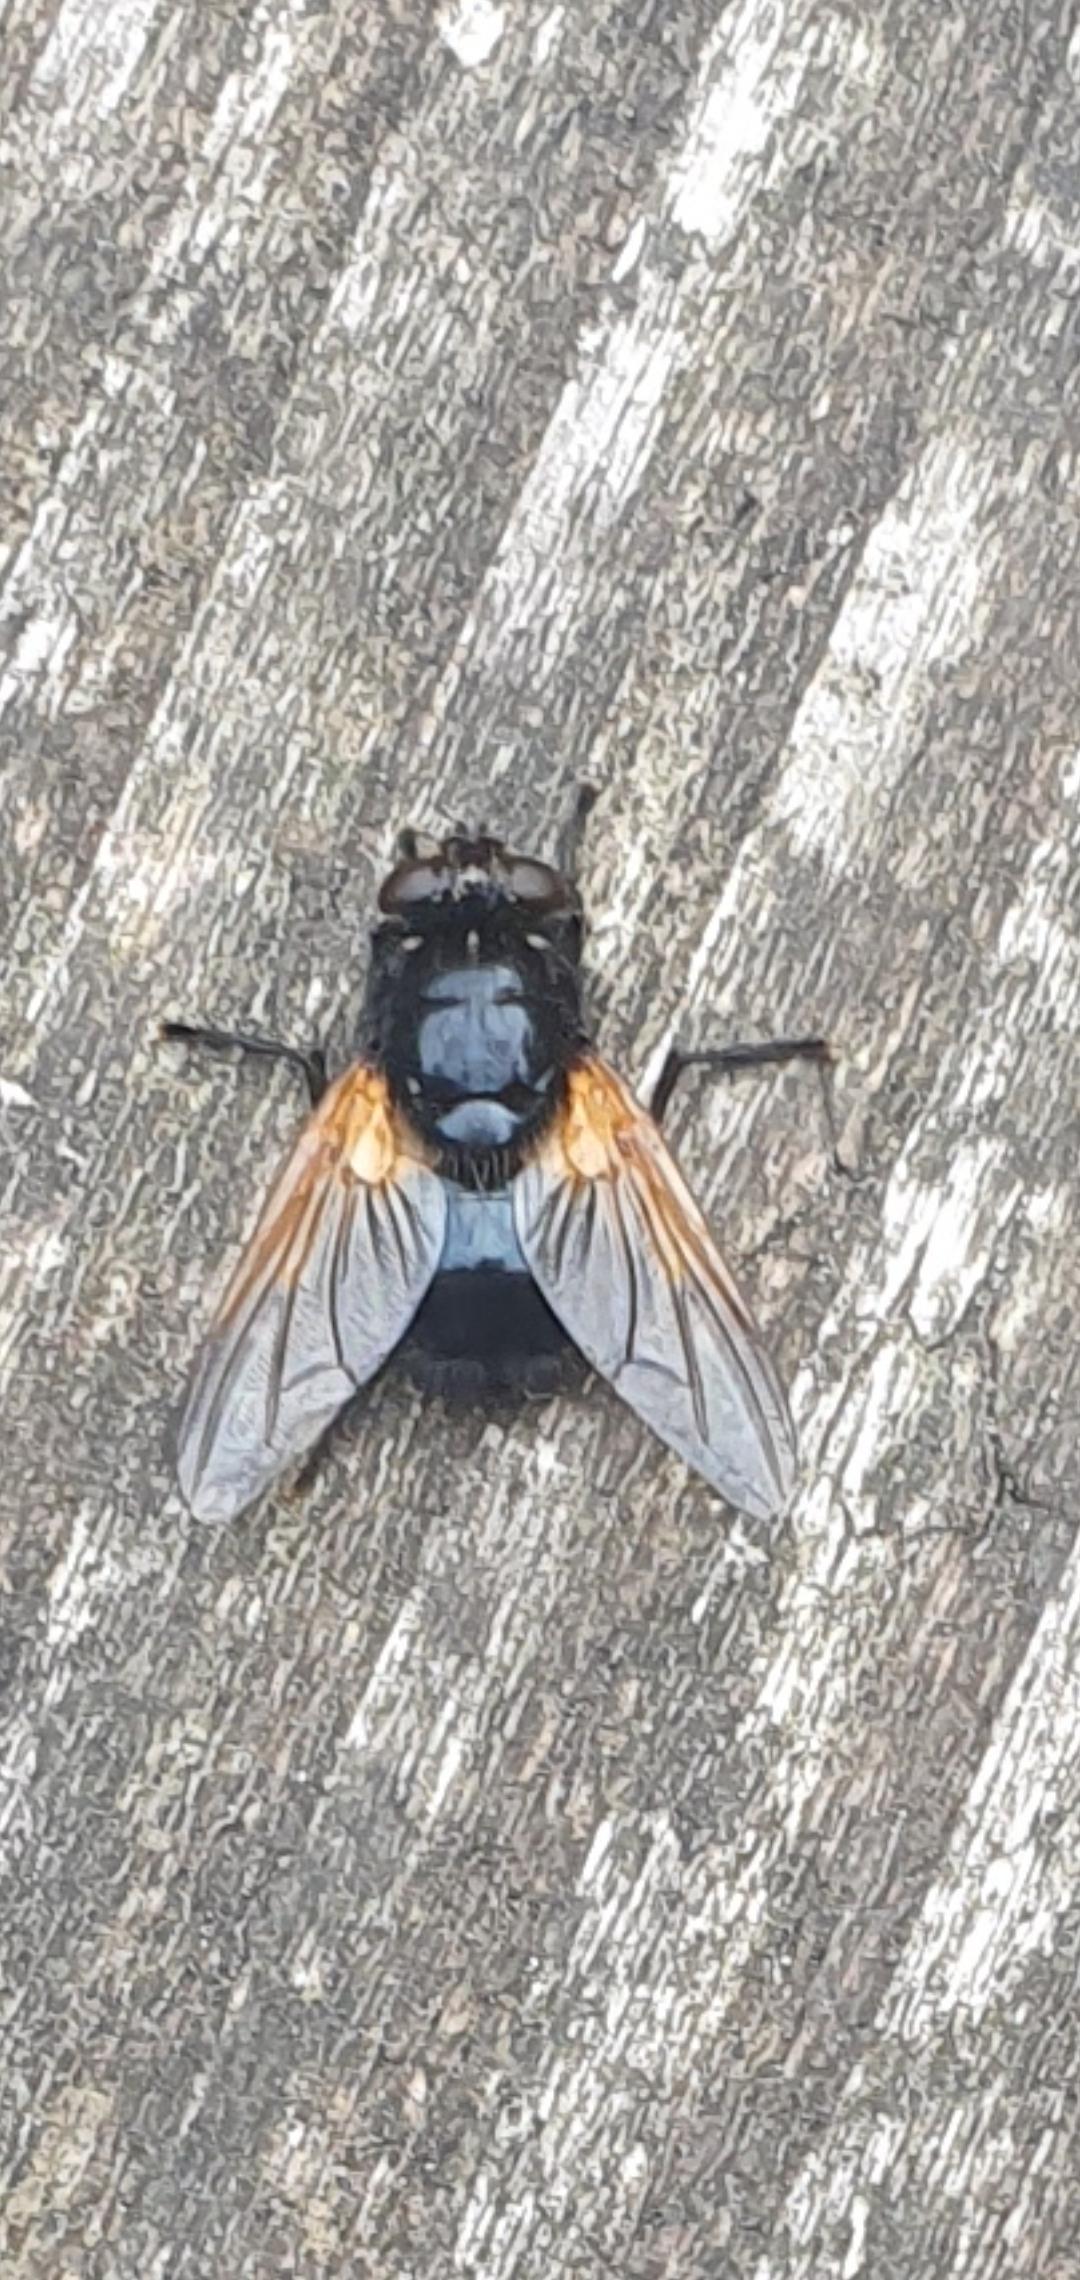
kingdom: Animalia
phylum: Arthropoda
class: Insecta
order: Diptera
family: Muscidae
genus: Mesembrina
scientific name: Mesembrina meridiana
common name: Gulvinget flue
